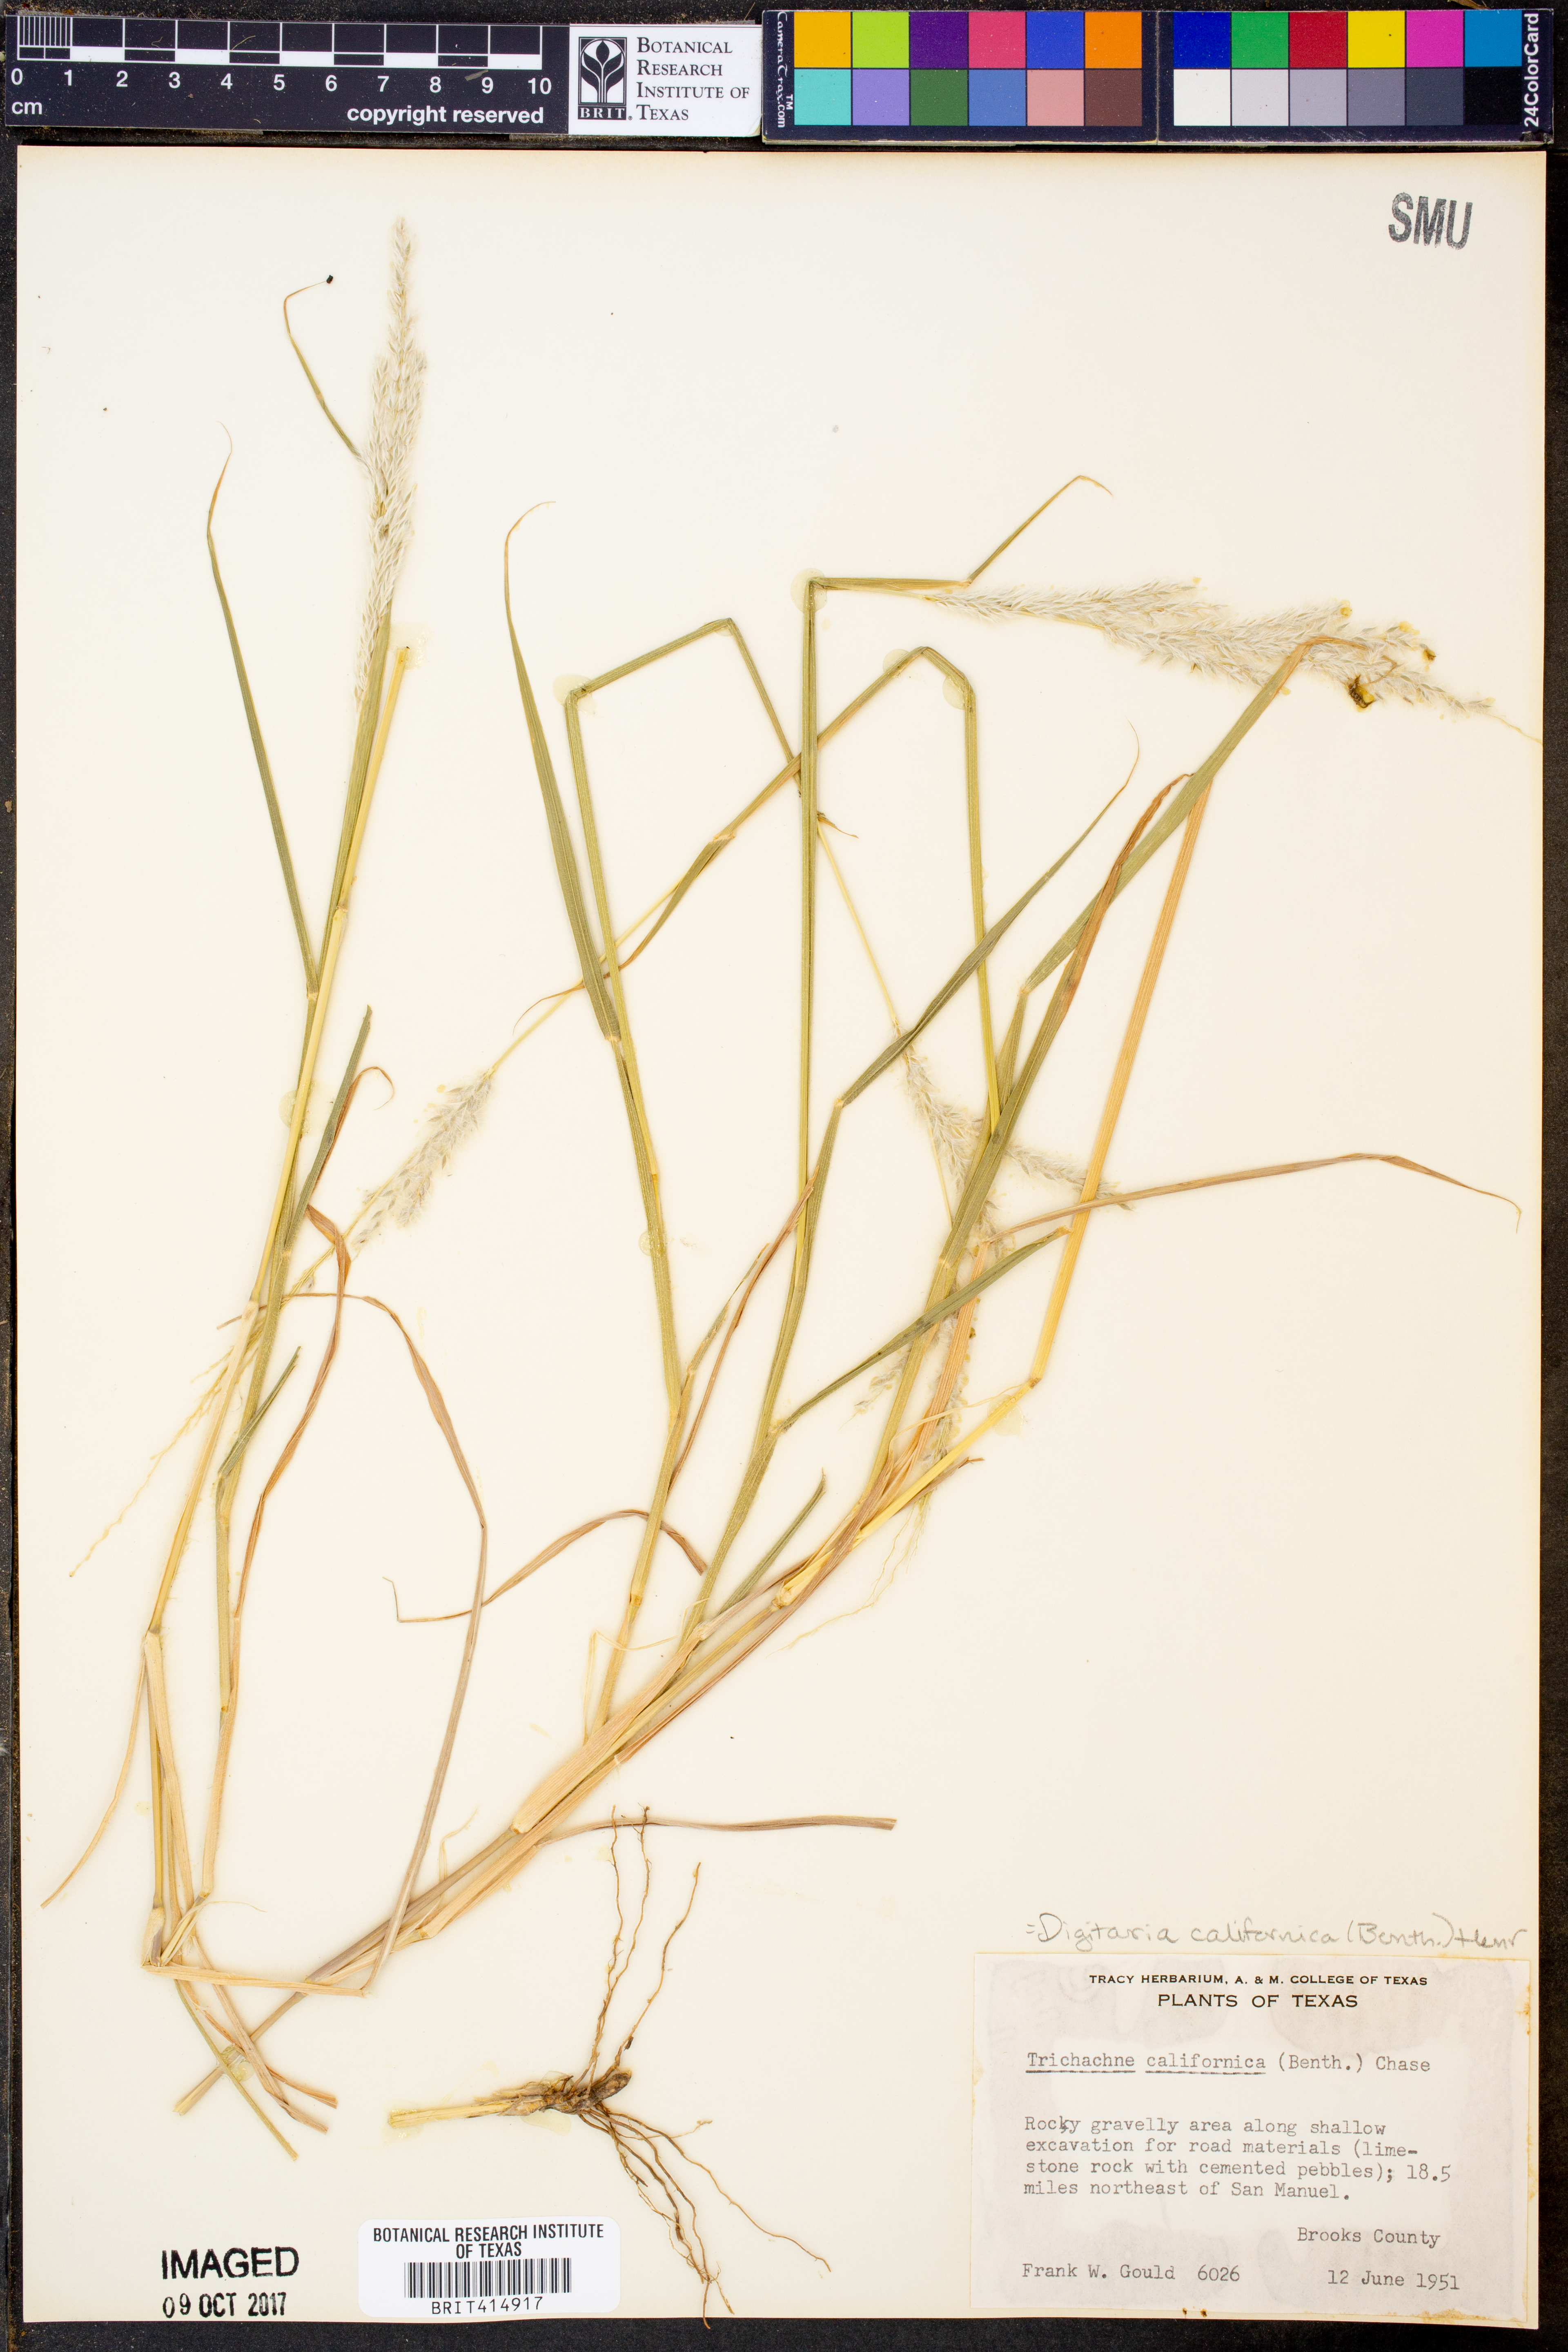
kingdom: Plantae
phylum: Tracheophyta
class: Liliopsida
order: Poales
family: Poaceae
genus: Digitaria
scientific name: Digitaria californica
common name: Arizona cottontop
